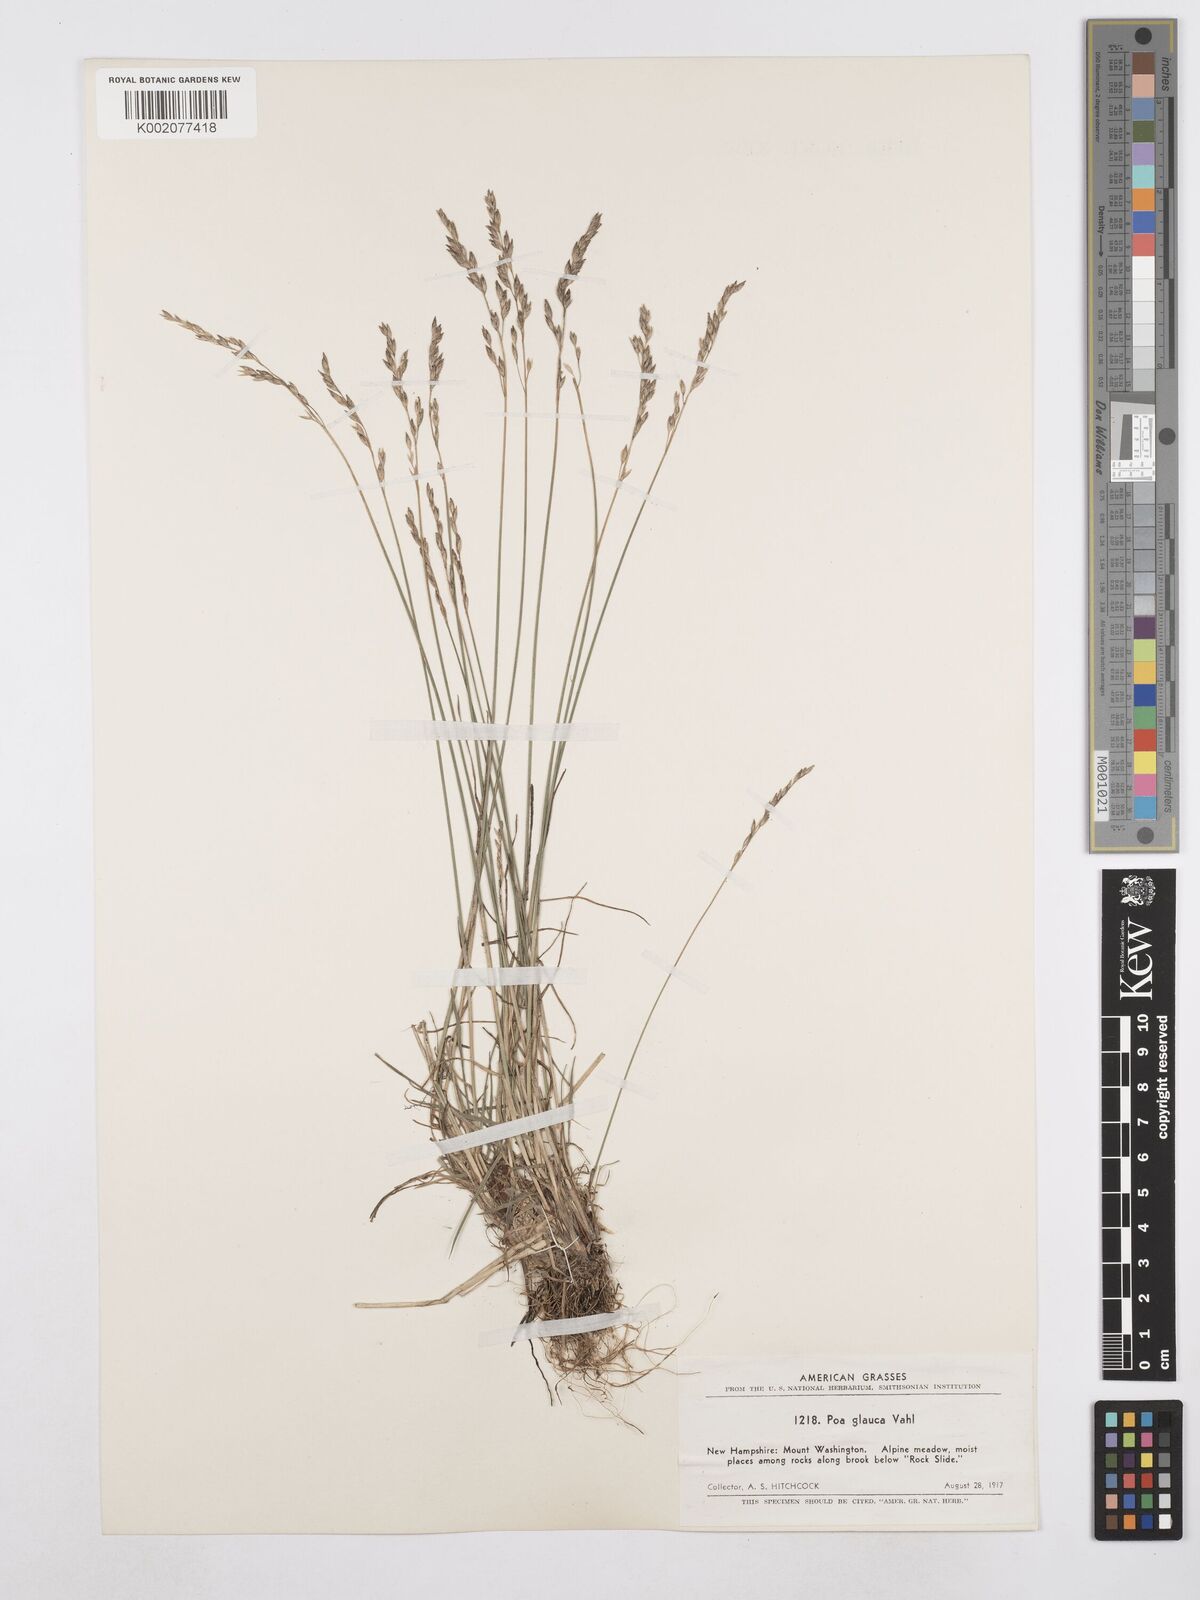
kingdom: Plantae
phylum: Tracheophyta
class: Liliopsida
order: Poales
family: Poaceae
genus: Poa
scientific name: Poa glauca
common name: Glaucous bluegrass
